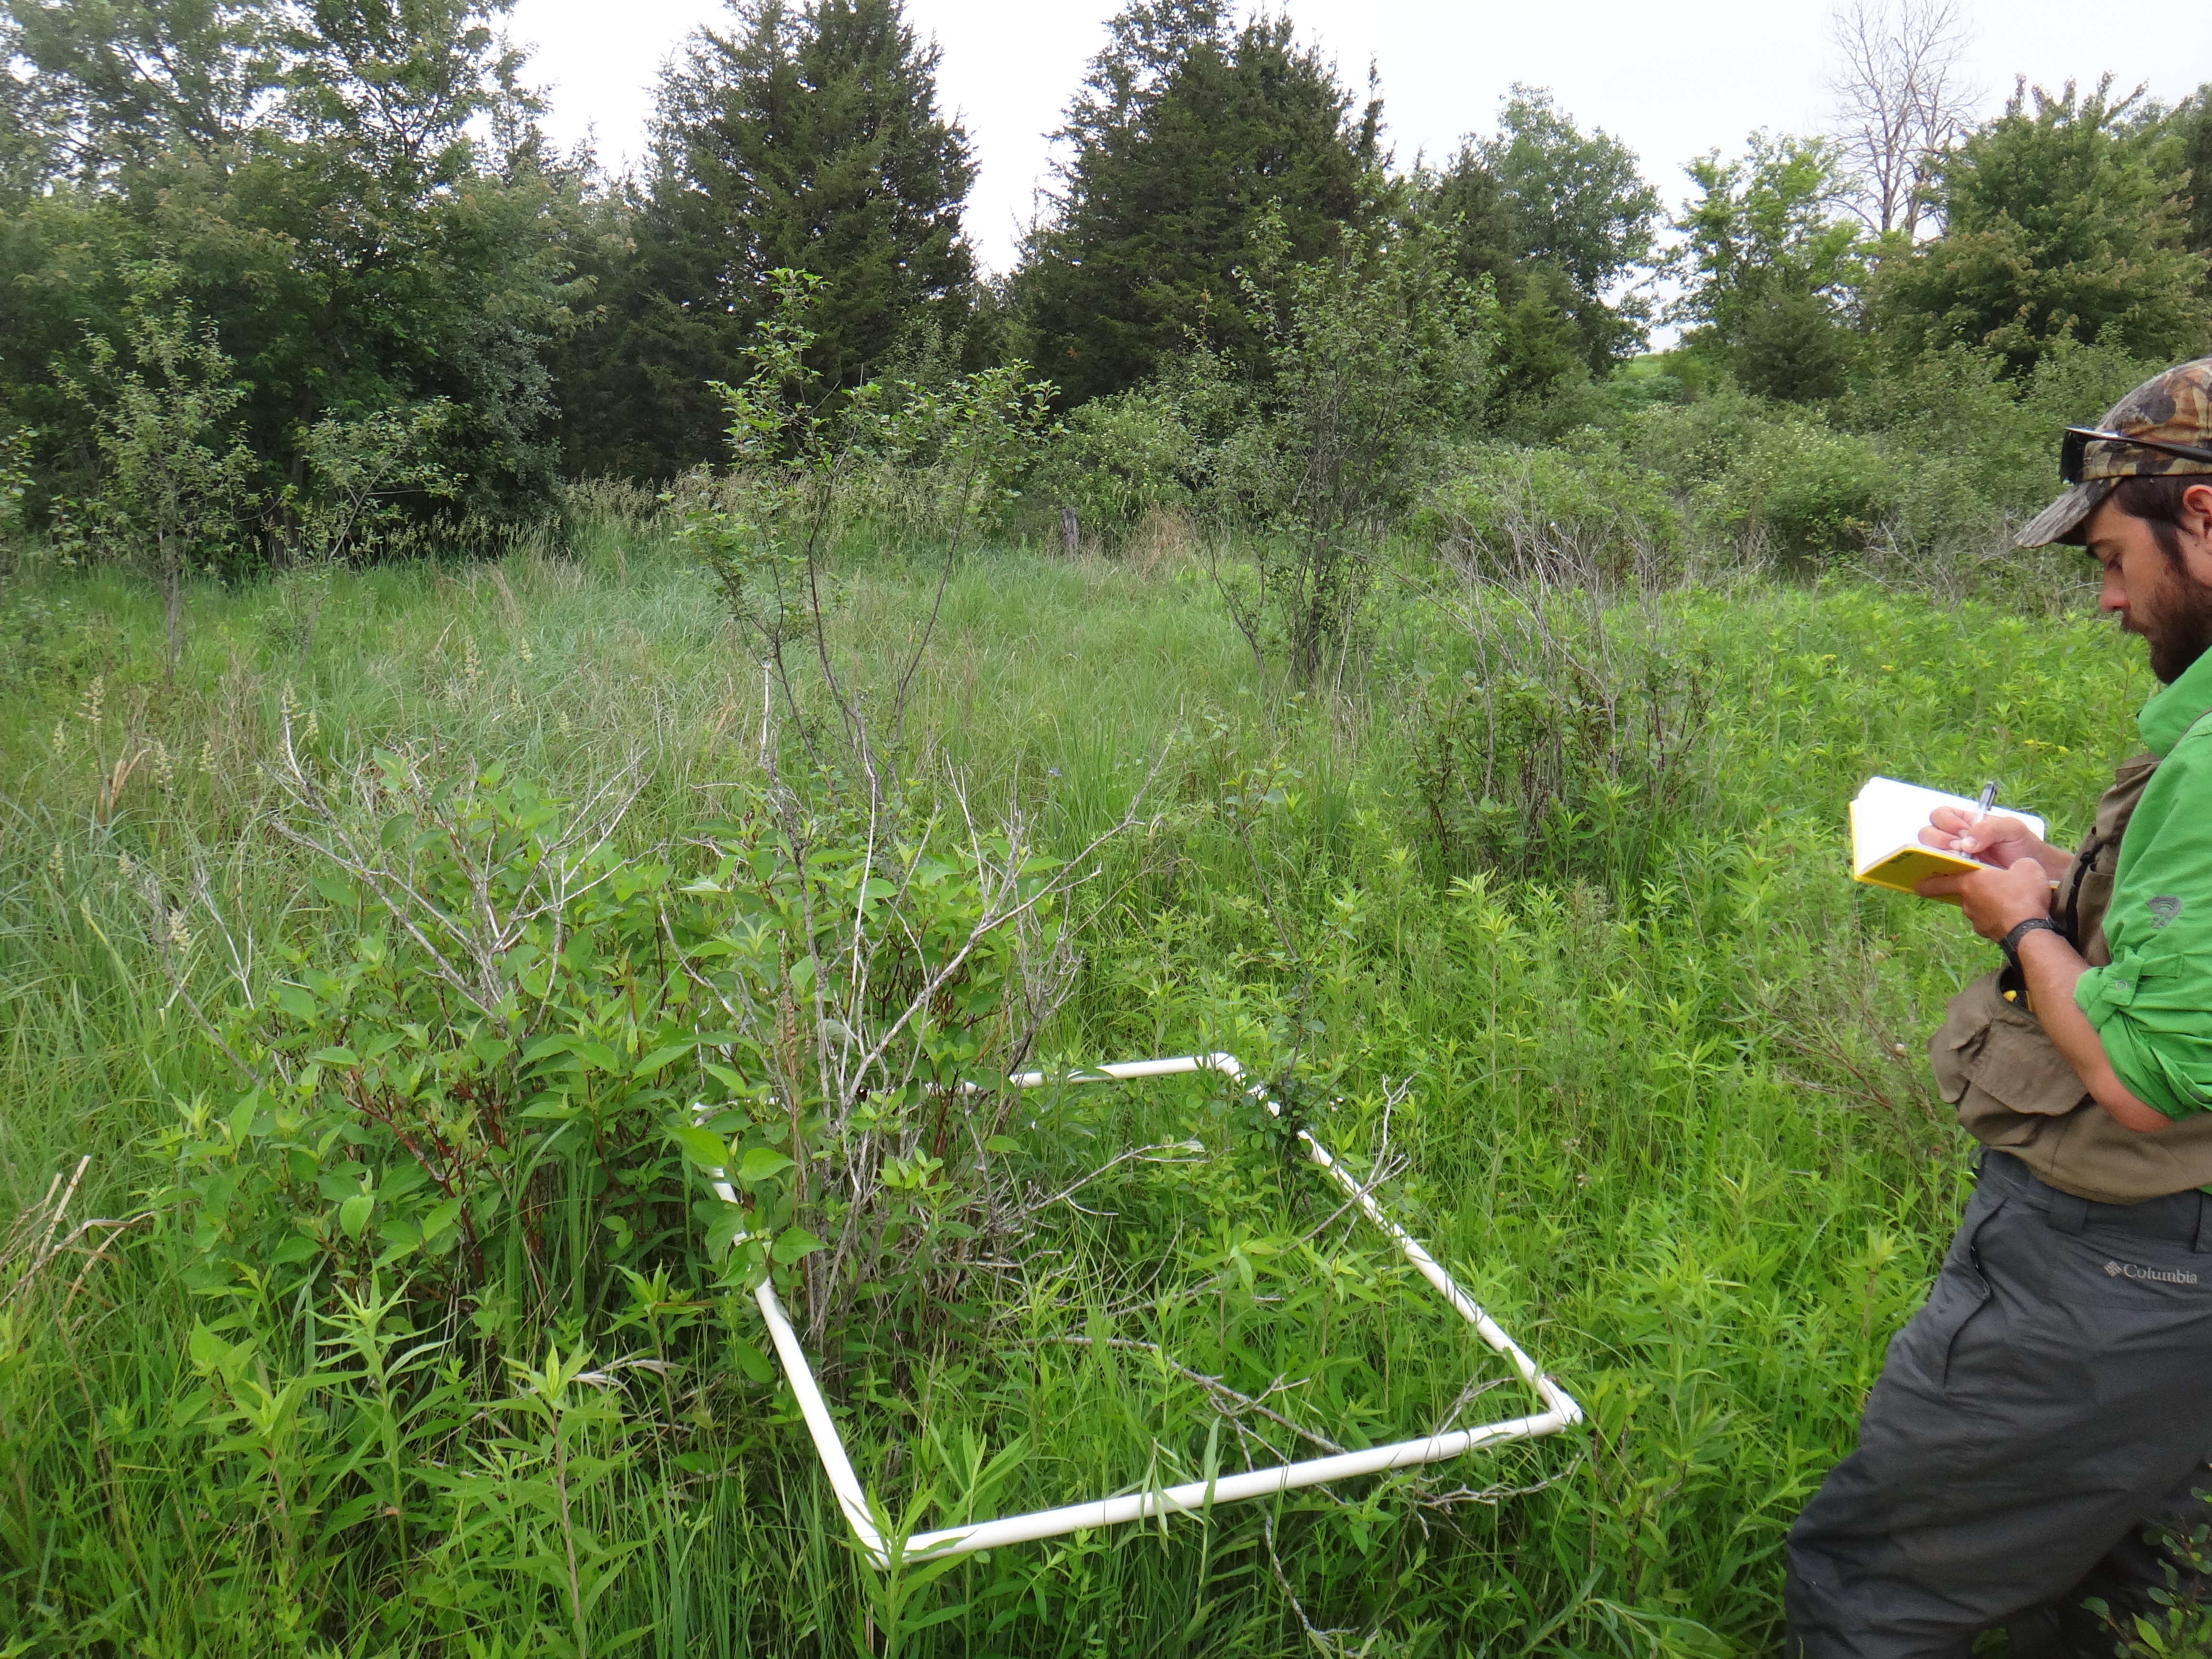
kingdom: Plantae
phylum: Tracheophyta
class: Magnoliopsida
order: Asterales
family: Asteraceae
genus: Euthamia
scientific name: Euthamia graminifolia
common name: Common goldentop
